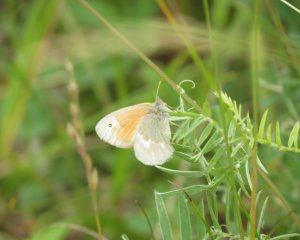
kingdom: Animalia
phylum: Arthropoda
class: Insecta
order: Lepidoptera
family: Nymphalidae
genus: Coenonympha
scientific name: Coenonympha tullia
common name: Large Heath
